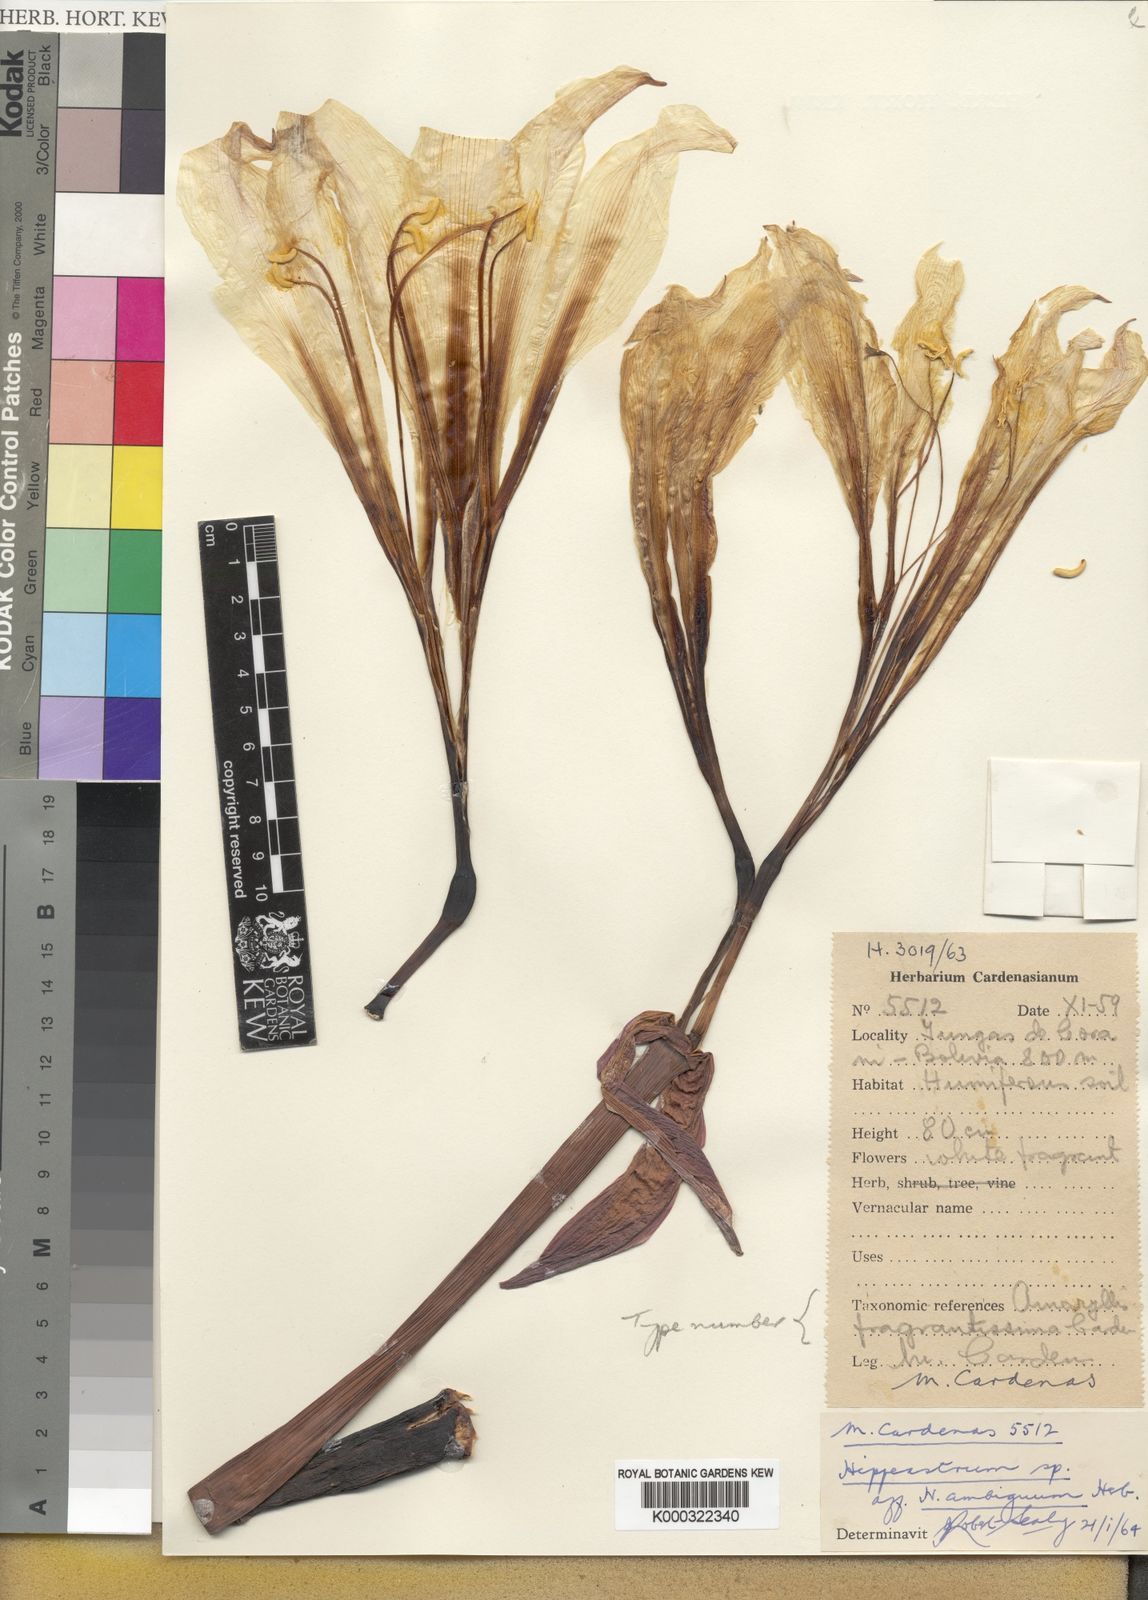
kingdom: Plantae
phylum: Tracheophyta
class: Liliopsida
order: Asparagales
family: Amaryllidaceae
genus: Amaryllis
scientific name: Amaryllis
